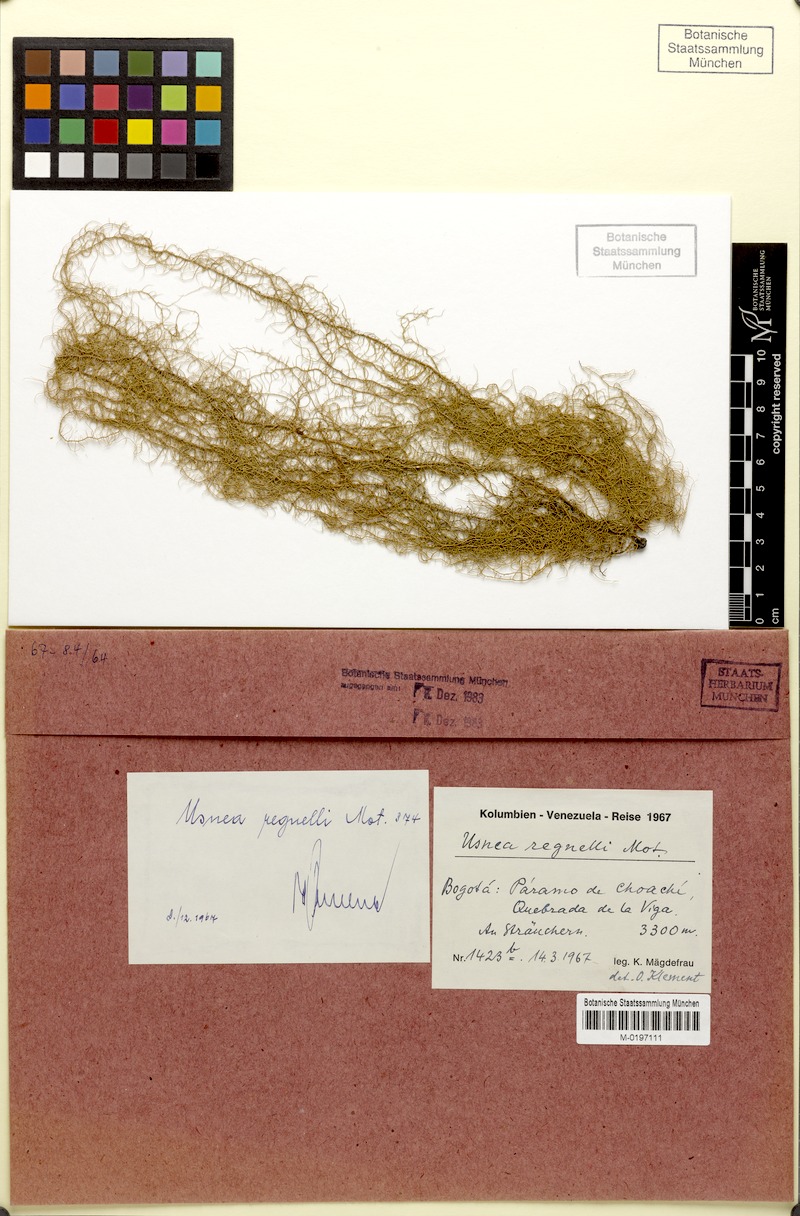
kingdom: Fungi
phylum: Ascomycota
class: Lecanoromycetes
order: Lecanorales
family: Parmeliaceae
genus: Usnea
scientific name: Usnea
